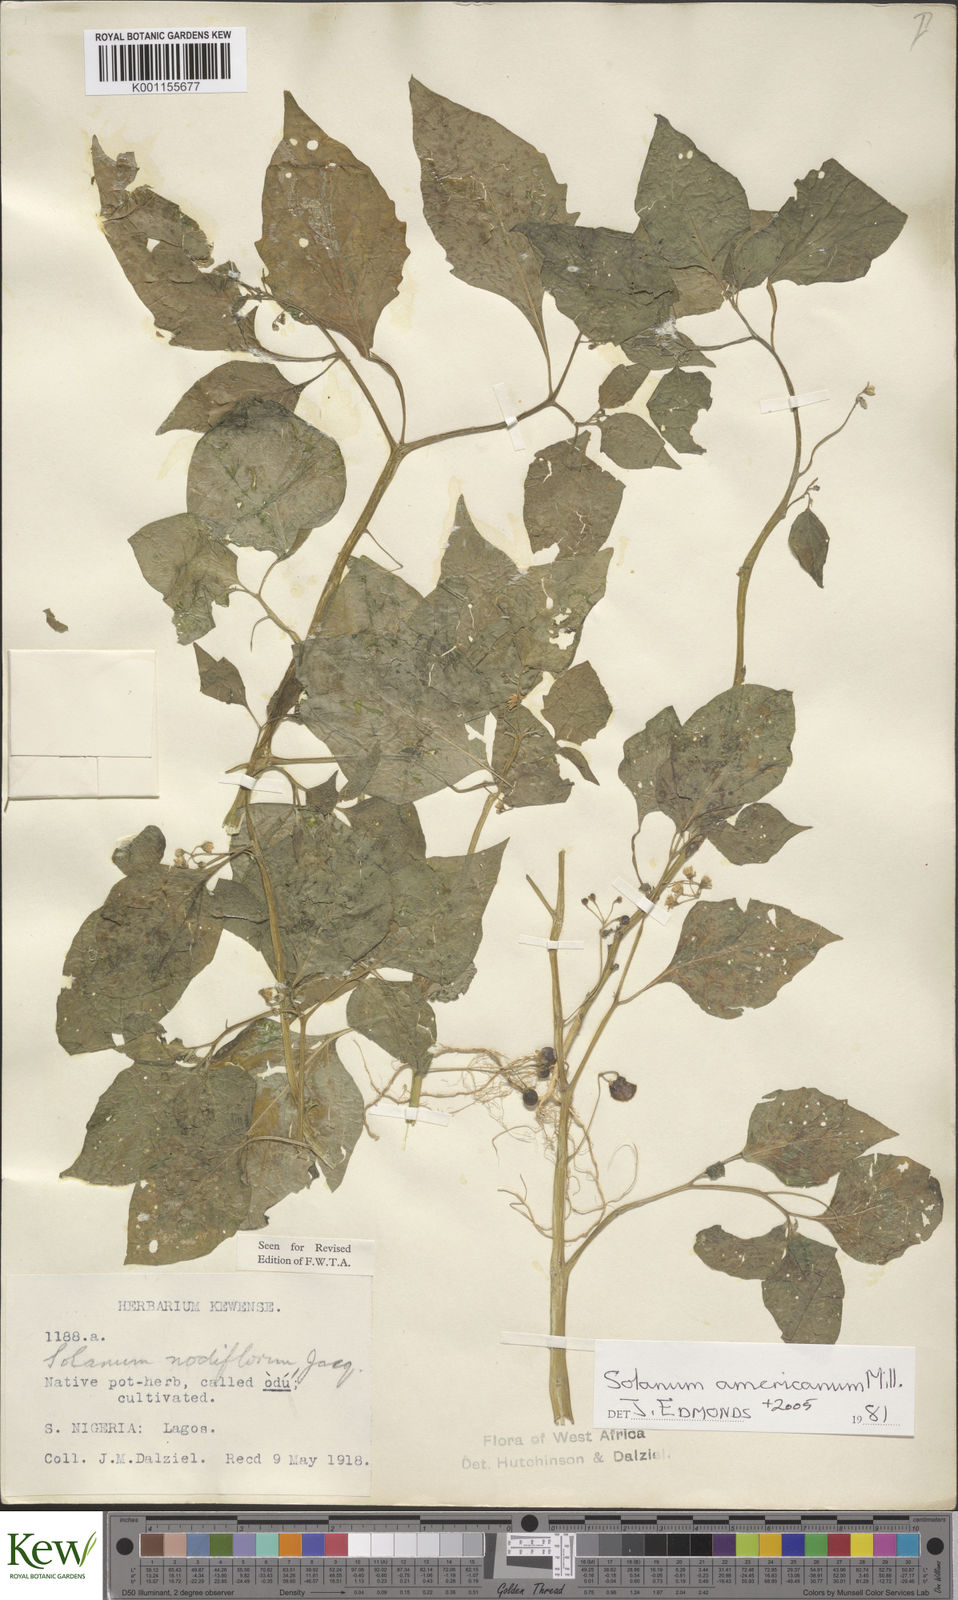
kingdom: Plantae
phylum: Tracheophyta
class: Magnoliopsida
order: Solanales
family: Solanaceae
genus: Solanum
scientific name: Solanum scabrum
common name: Garden-huckleberry
